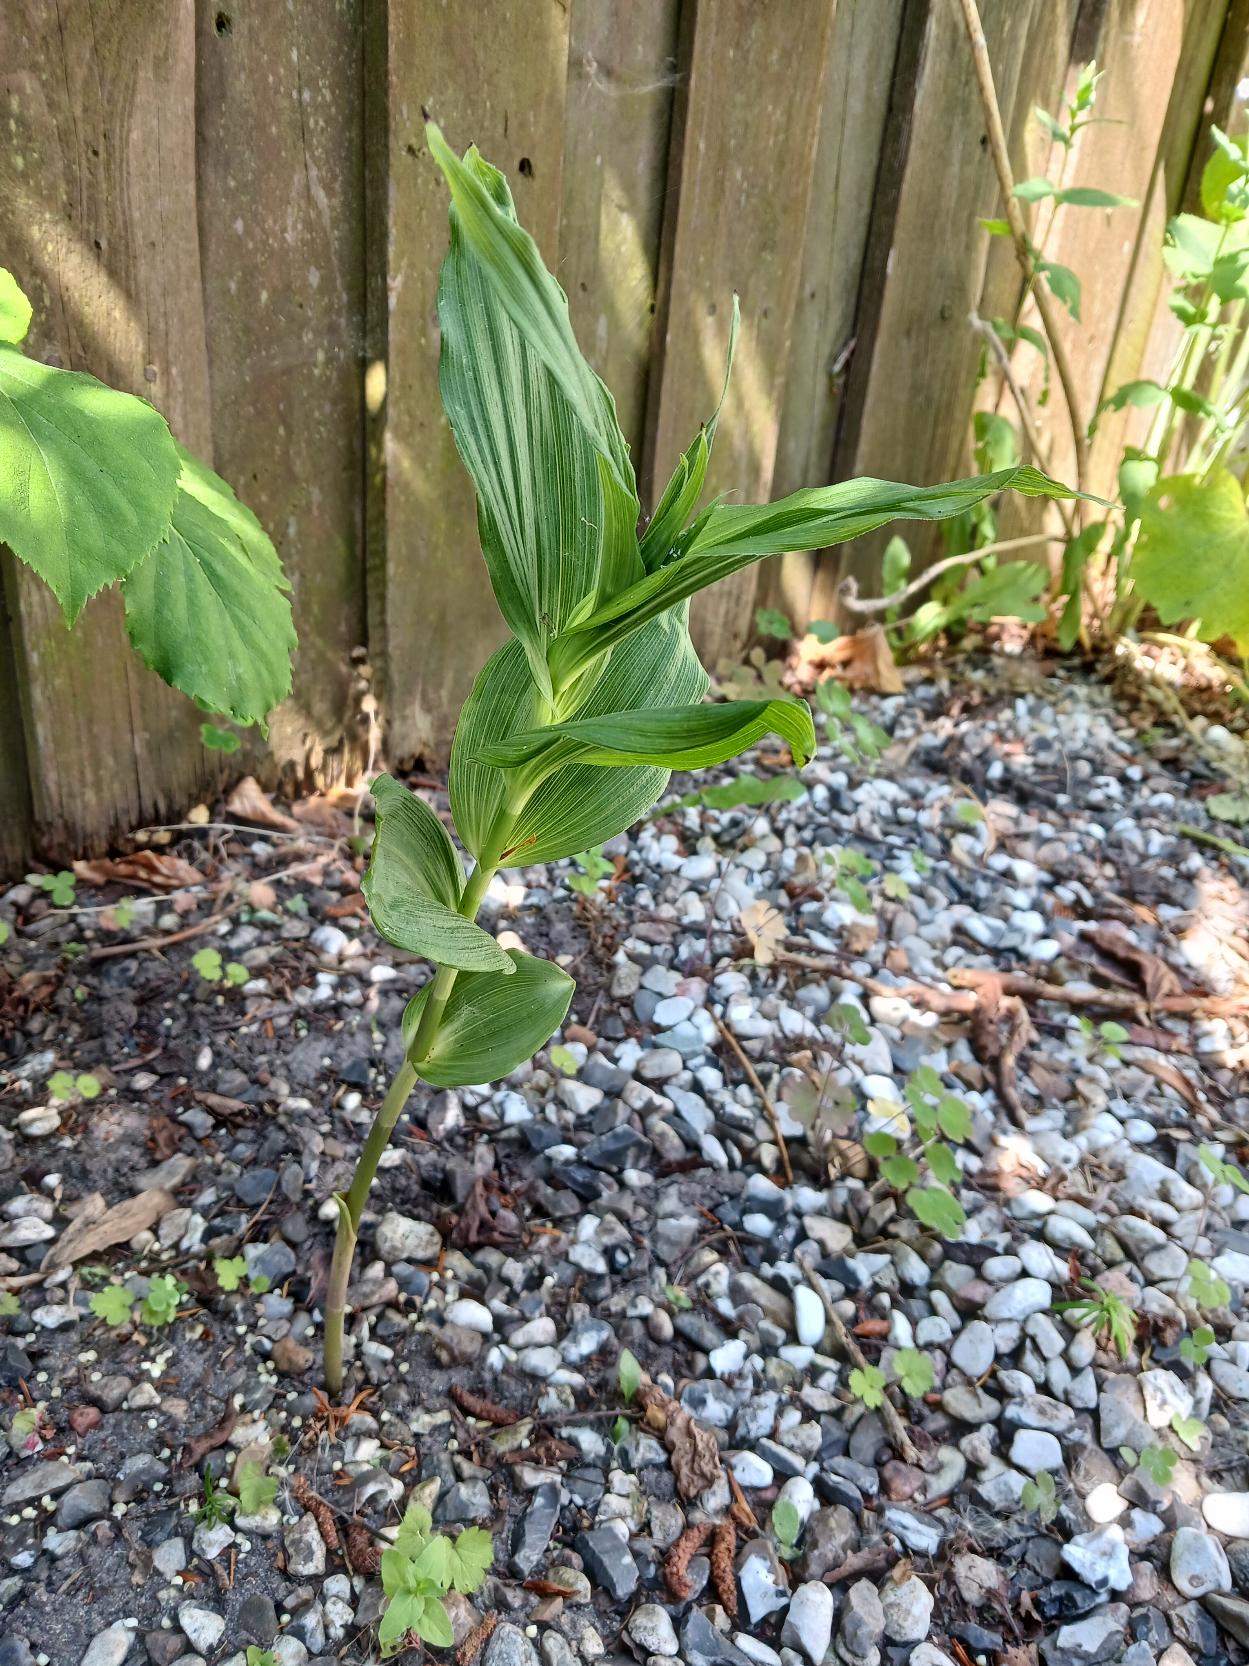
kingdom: Plantae
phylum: Tracheophyta
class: Liliopsida
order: Asparagales
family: Orchidaceae
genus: Epipactis
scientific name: Epipactis helleborine
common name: Skov-hullæbe
